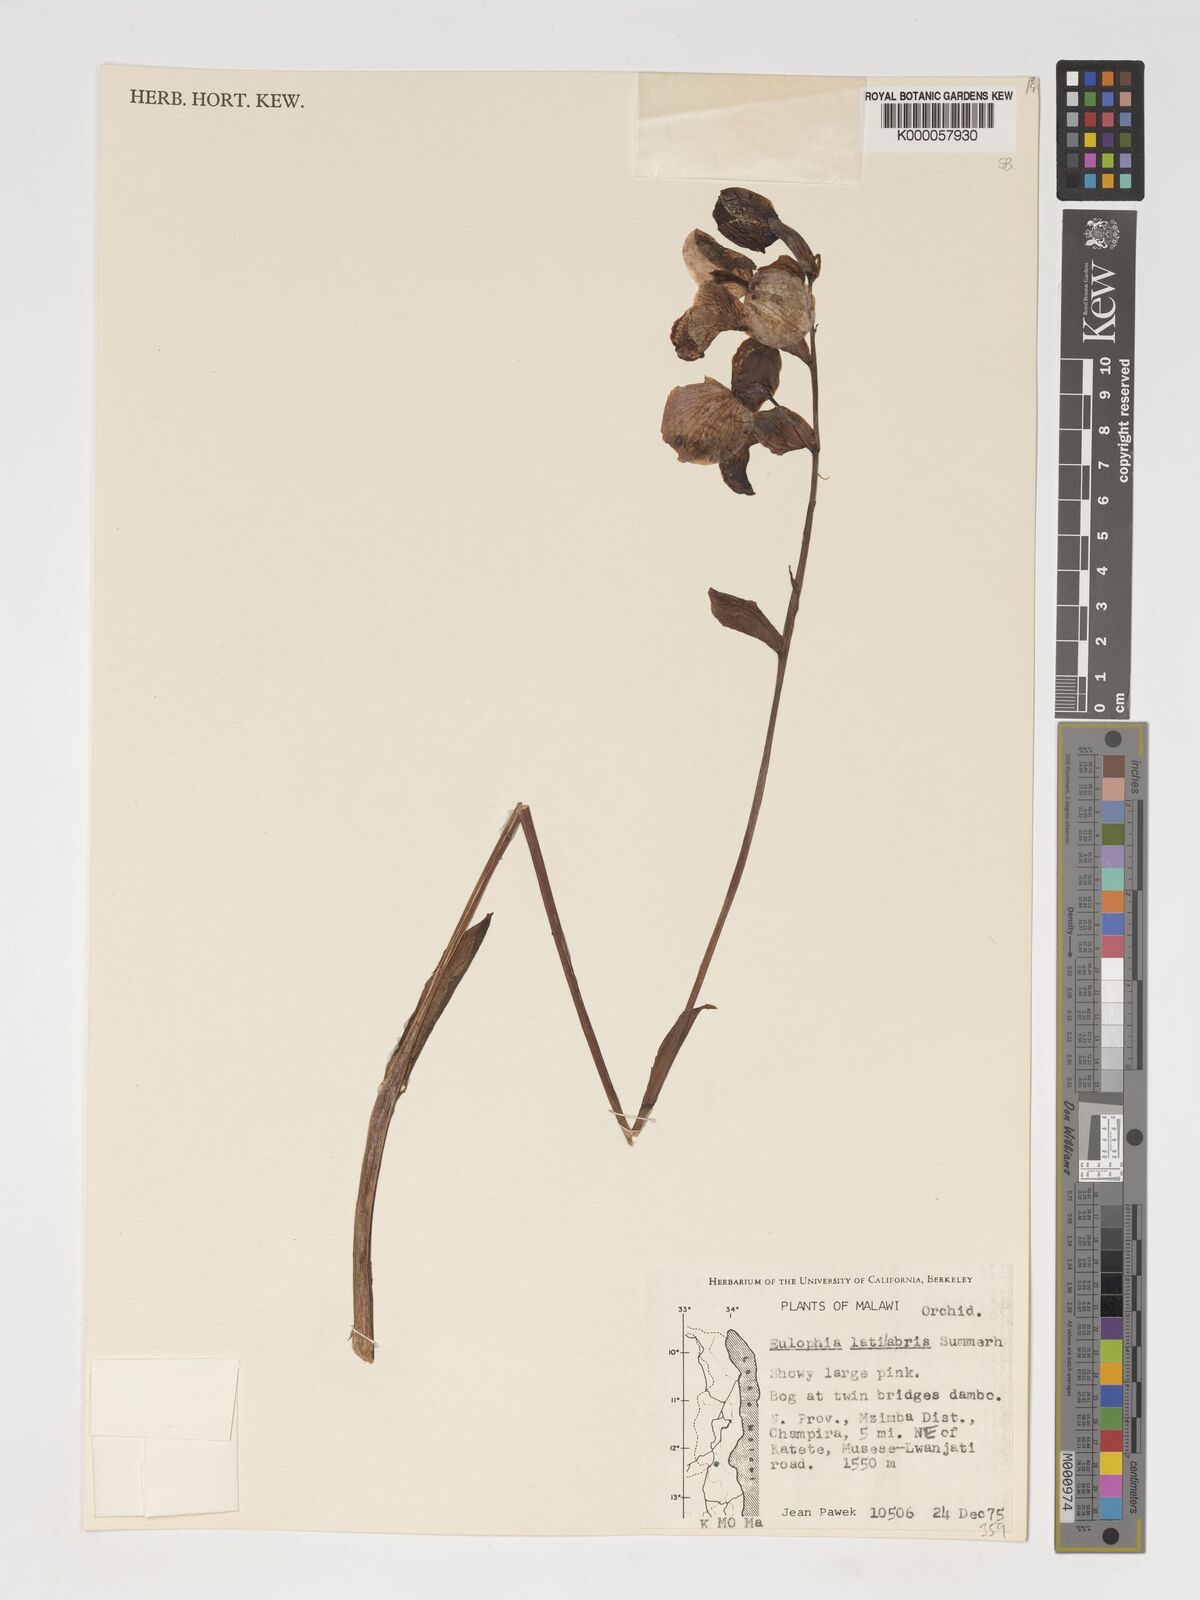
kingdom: Plantae
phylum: Tracheophyta
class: Liliopsida
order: Asparagales
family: Orchidaceae
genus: Eulophia
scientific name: Eulophia latilabris
